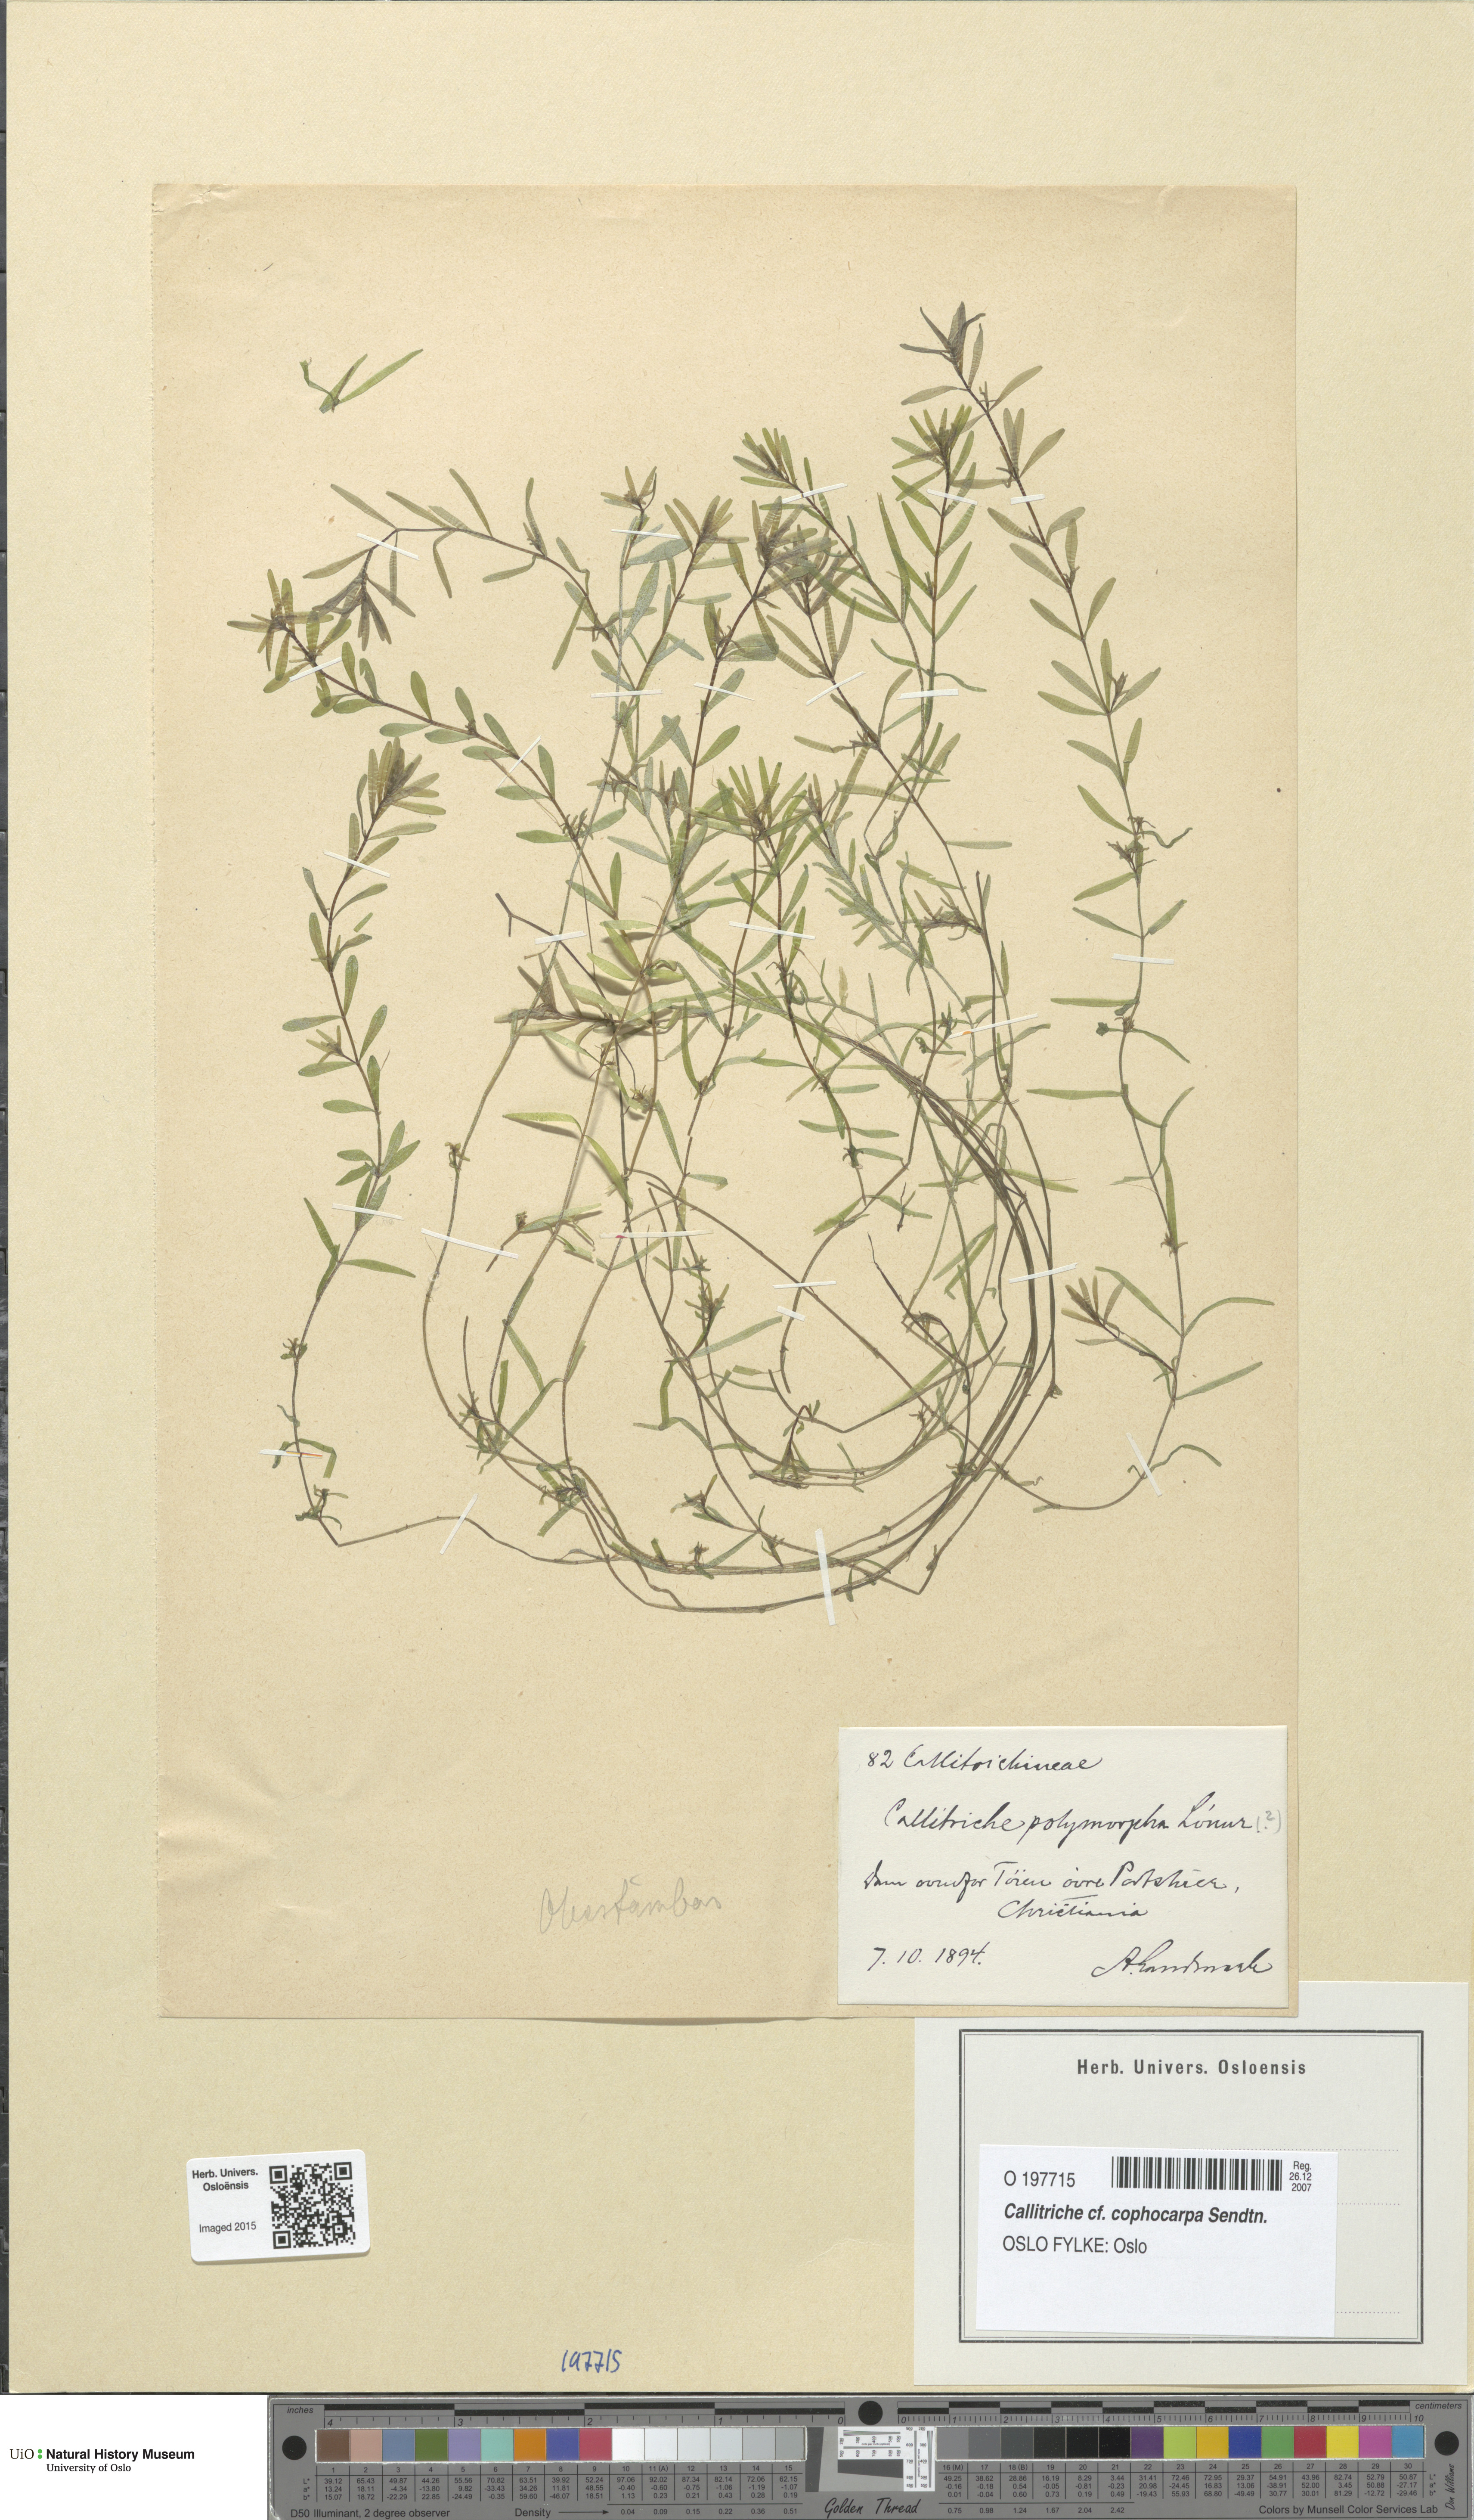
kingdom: Plantae
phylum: Tracheophyta
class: Magnoliopsida
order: Lamiales
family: Plantaginaceae
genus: Callitriche
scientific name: Callitriche cophocarpa
